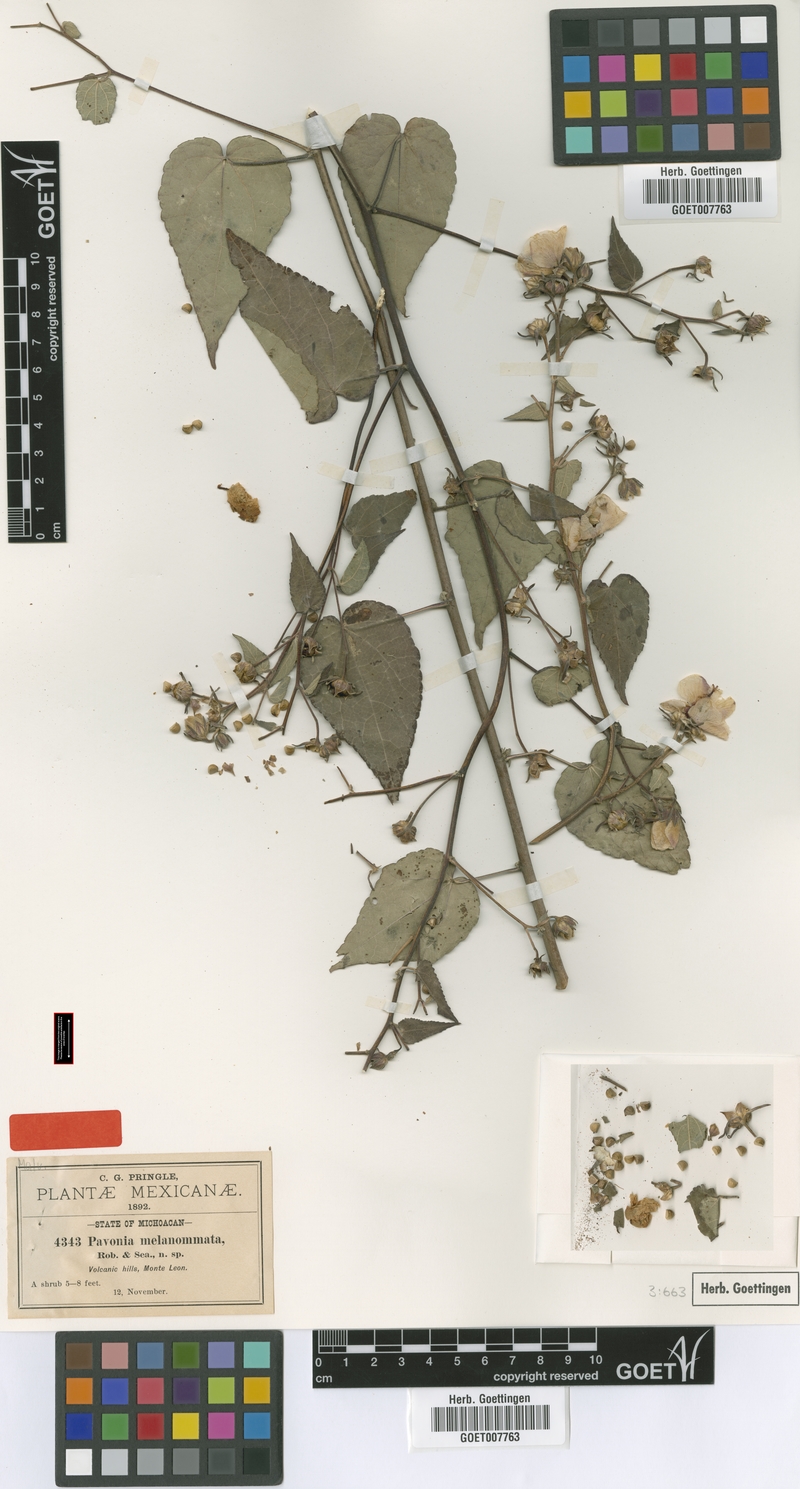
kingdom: Plantae
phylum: Tracheophyta
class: Magnoliopsida
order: Malvales
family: Malvaceae
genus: Pavonia
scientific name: Pavonia oxyphylla
